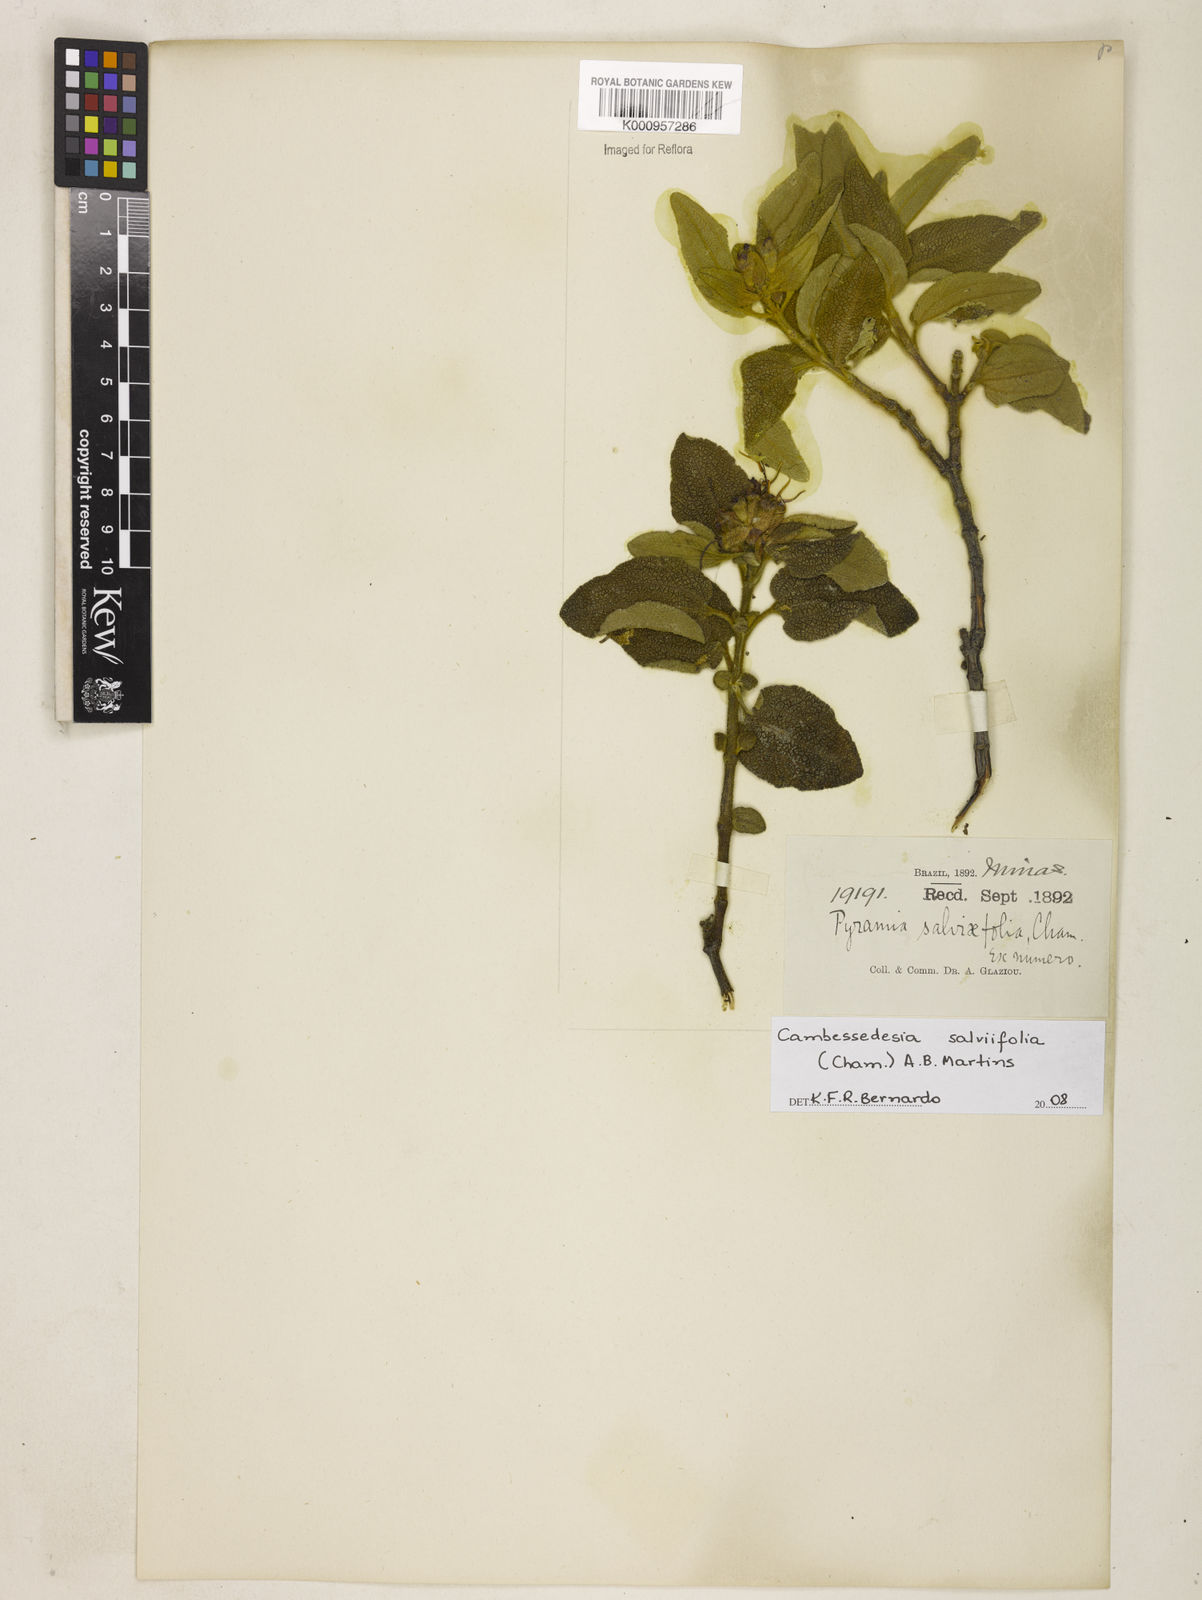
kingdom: Plantae
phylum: Tracheophyta
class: Magnoliopsida
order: Myrtales
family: Melastomataceae
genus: Cambessedesia
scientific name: Cambessedesia
